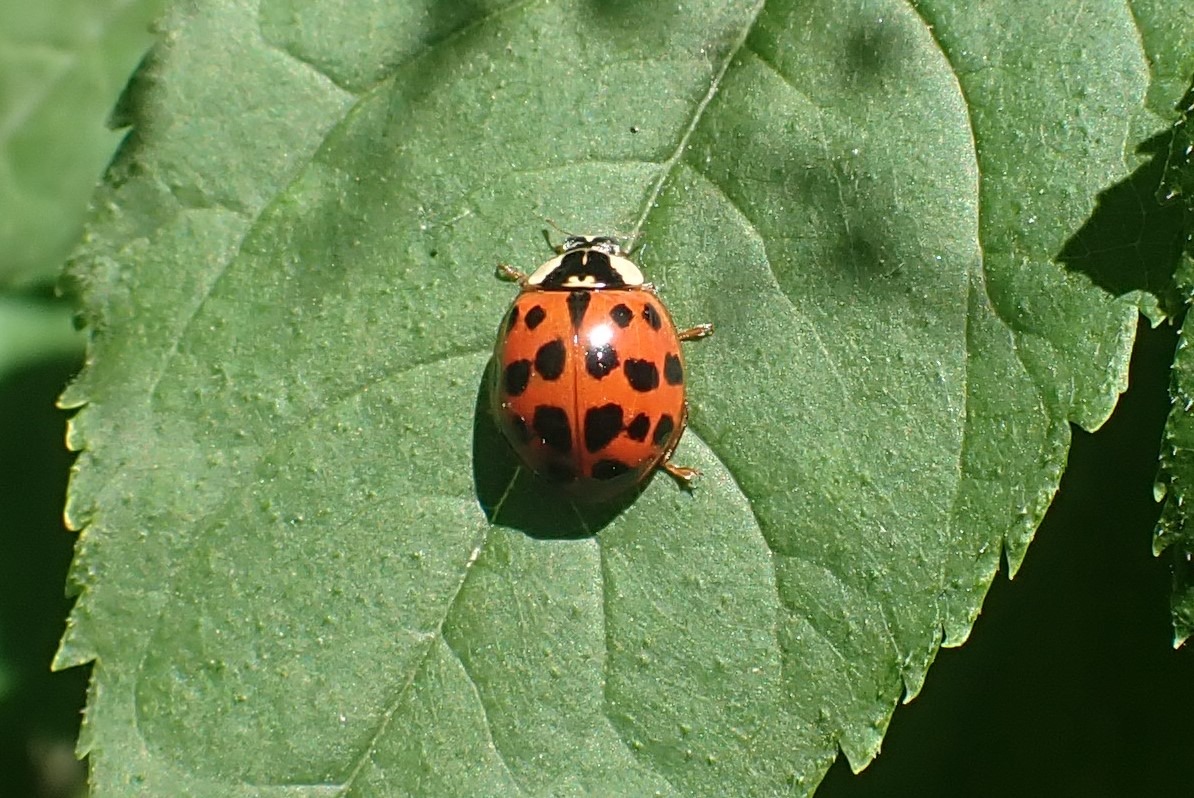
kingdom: Animalia
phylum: Arthropoda
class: Insecta
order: Coleoptera
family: Coccinellidae
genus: Harmonia
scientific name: Harmonia axyridis
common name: Harlekinmariehøne
